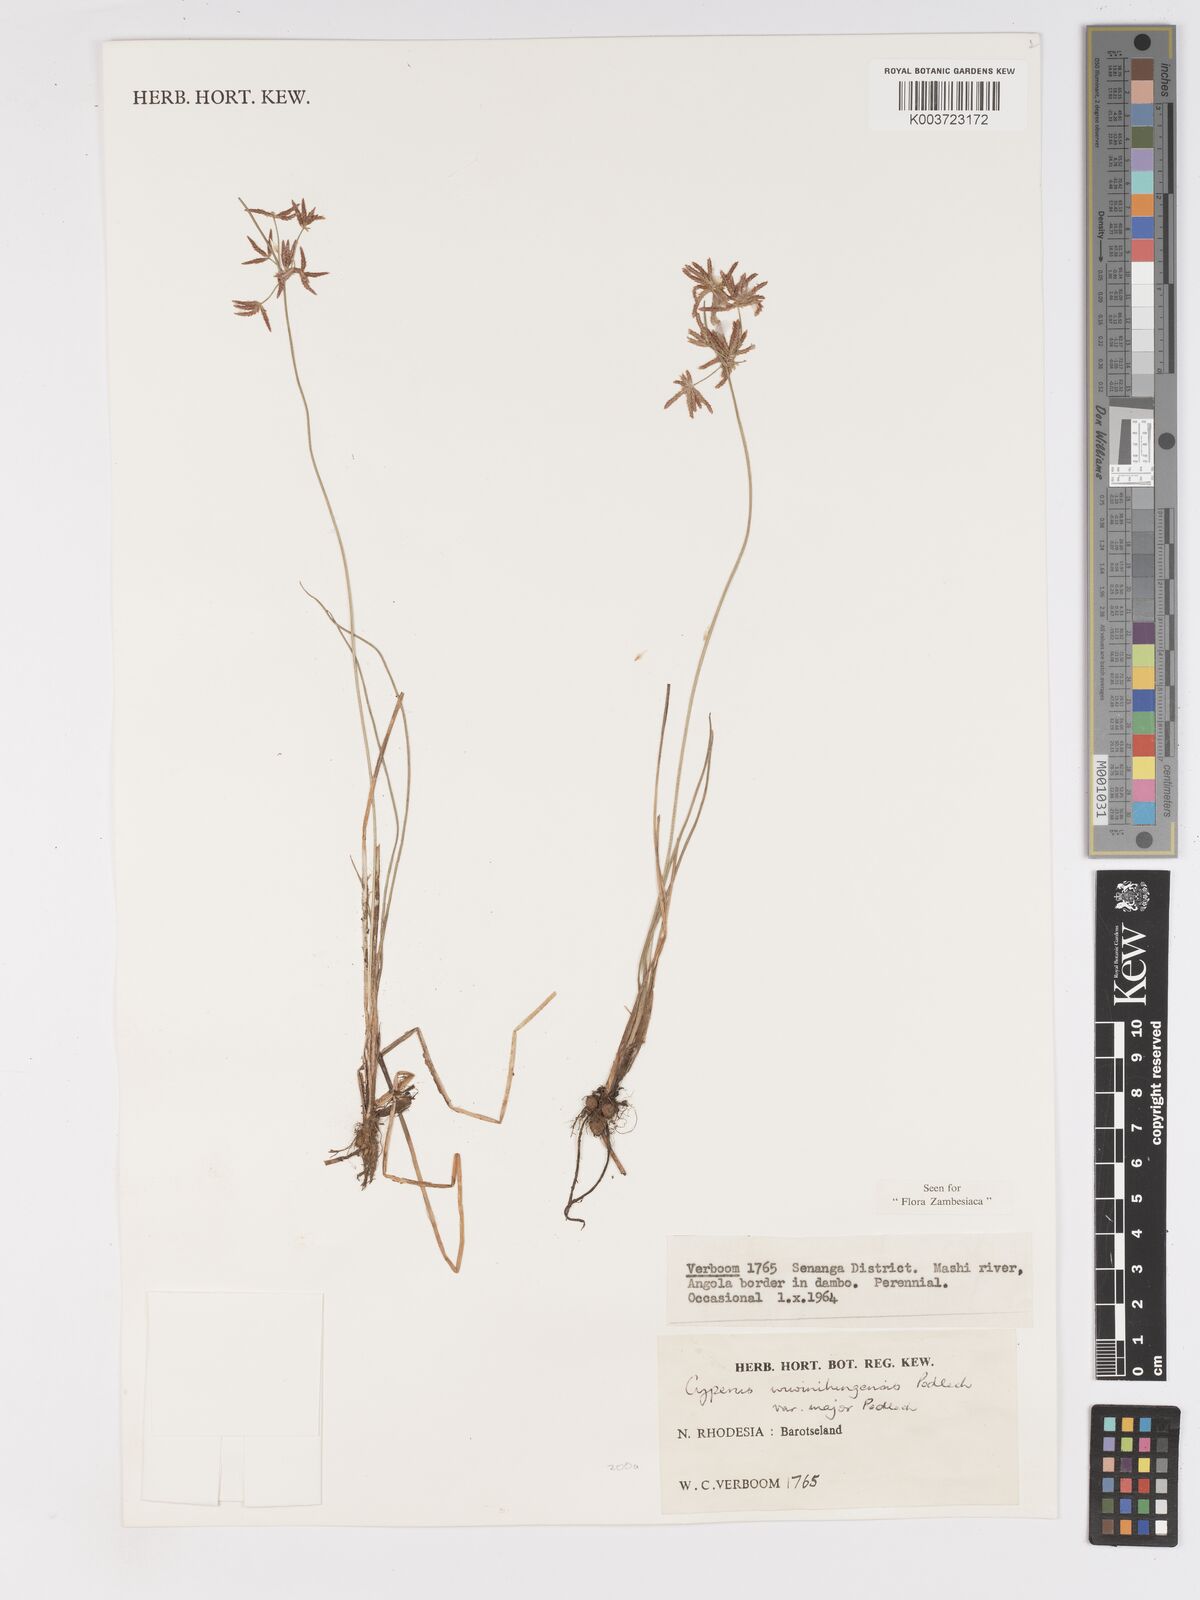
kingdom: Plantae
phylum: Tracheophyta
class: Liliopsida
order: Poales
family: Cyperaceae
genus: Cyperus
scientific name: Cyperus mwinilungensis
